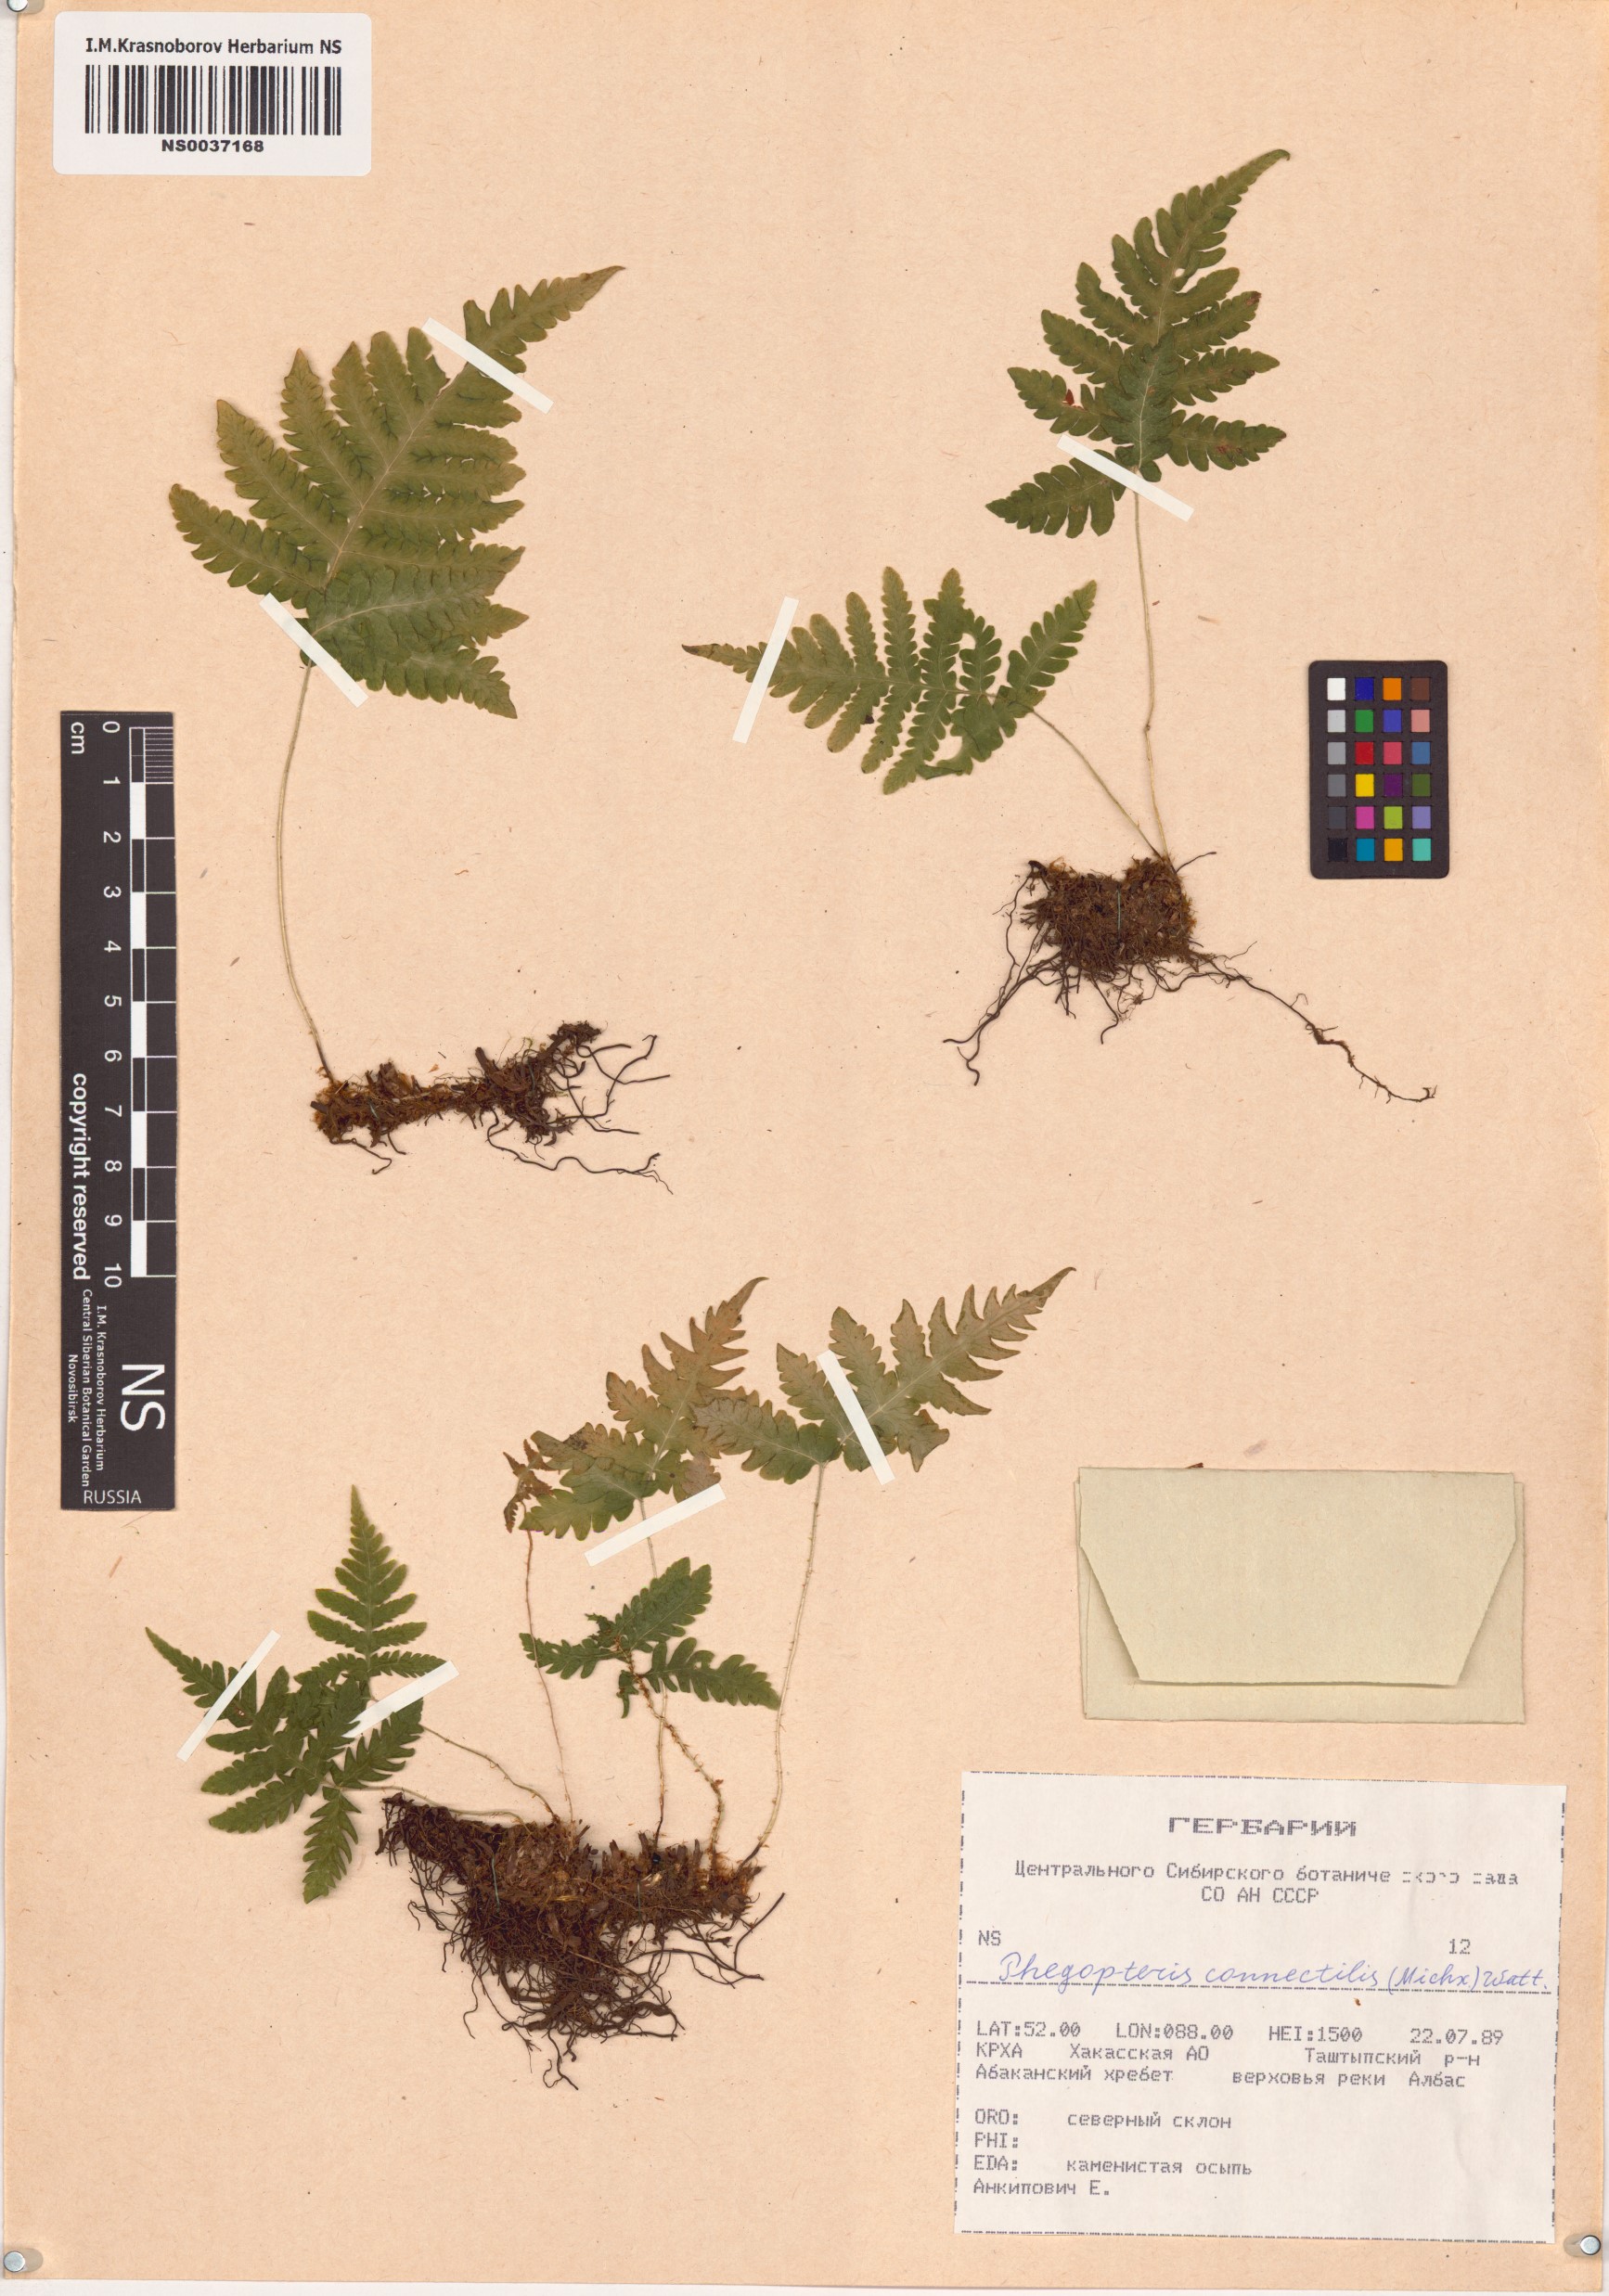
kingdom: Plantae
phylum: Tracheophyta
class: Polypodiopsida
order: Polypodiales
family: Thelypteridaceae
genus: Phegopteris
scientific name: Phegopteris connectilis
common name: Beech fern
